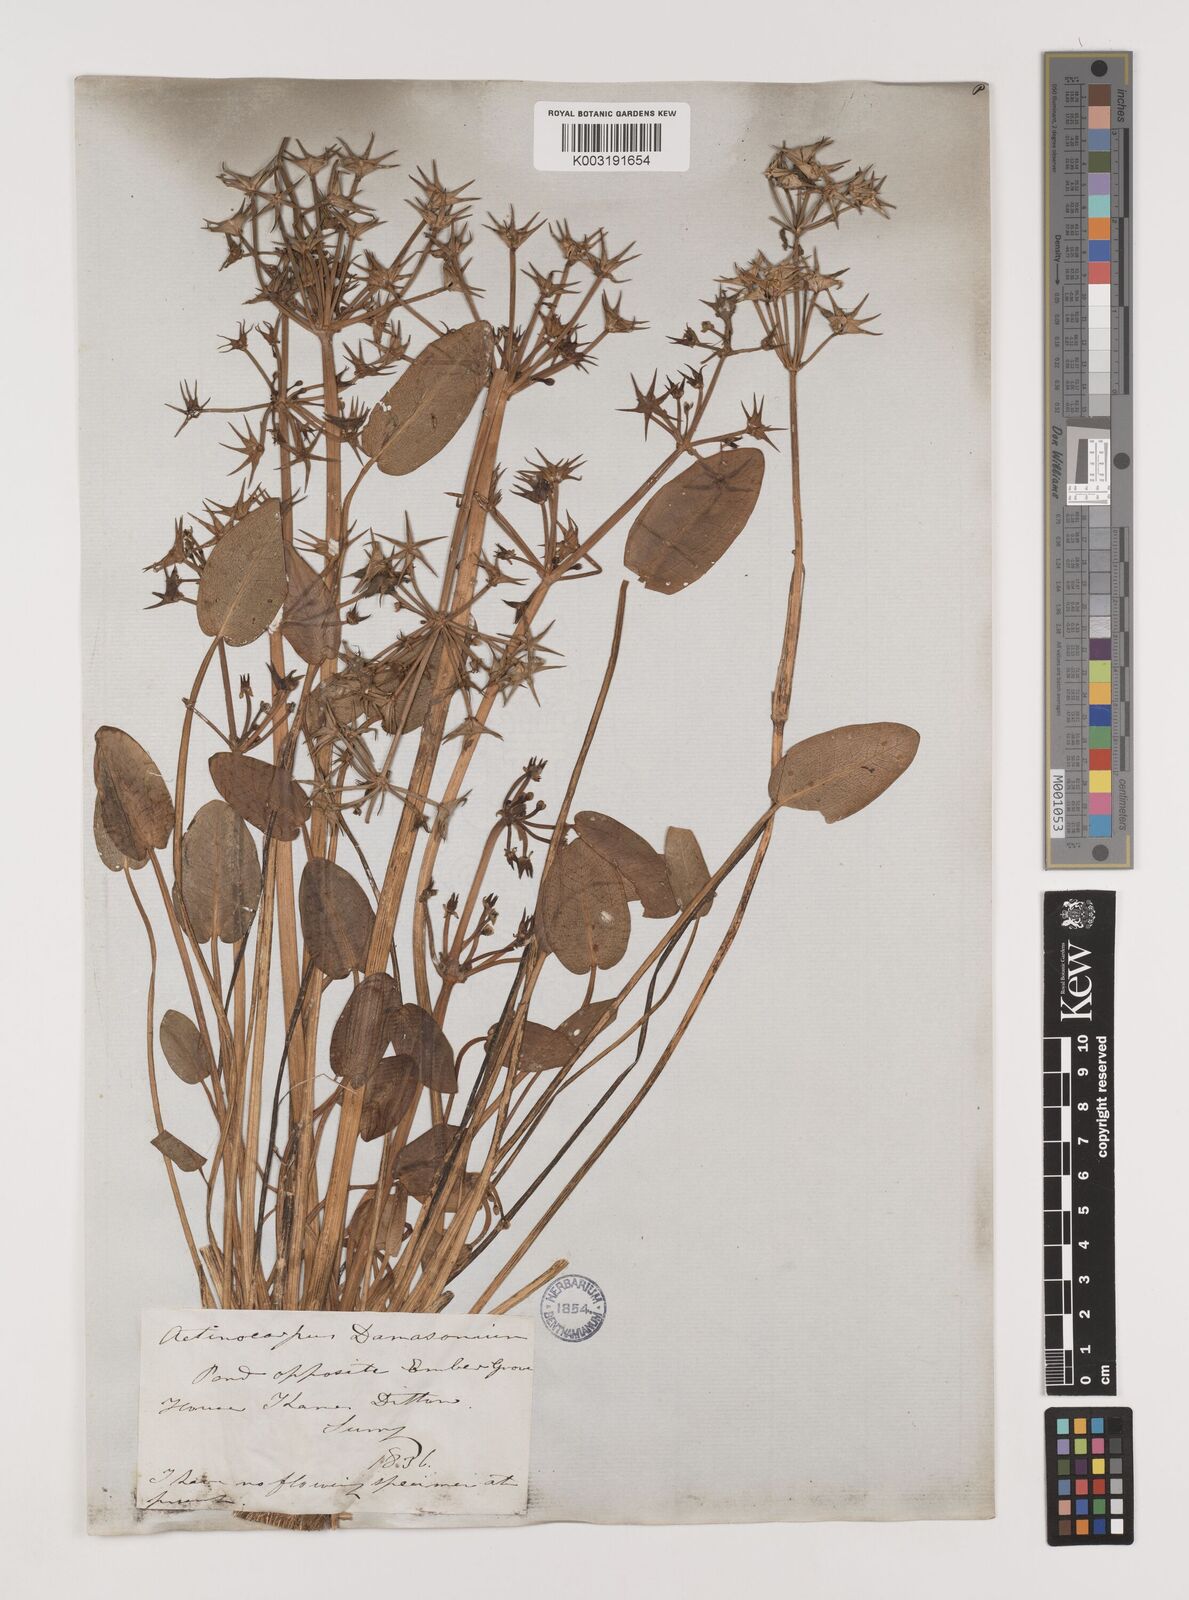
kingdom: Plantae
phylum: Tracheophyta
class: Liliopsida
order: Alismatales
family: Alismataceae
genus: Damasonium
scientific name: Damasonium alisma
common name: Starfruit
